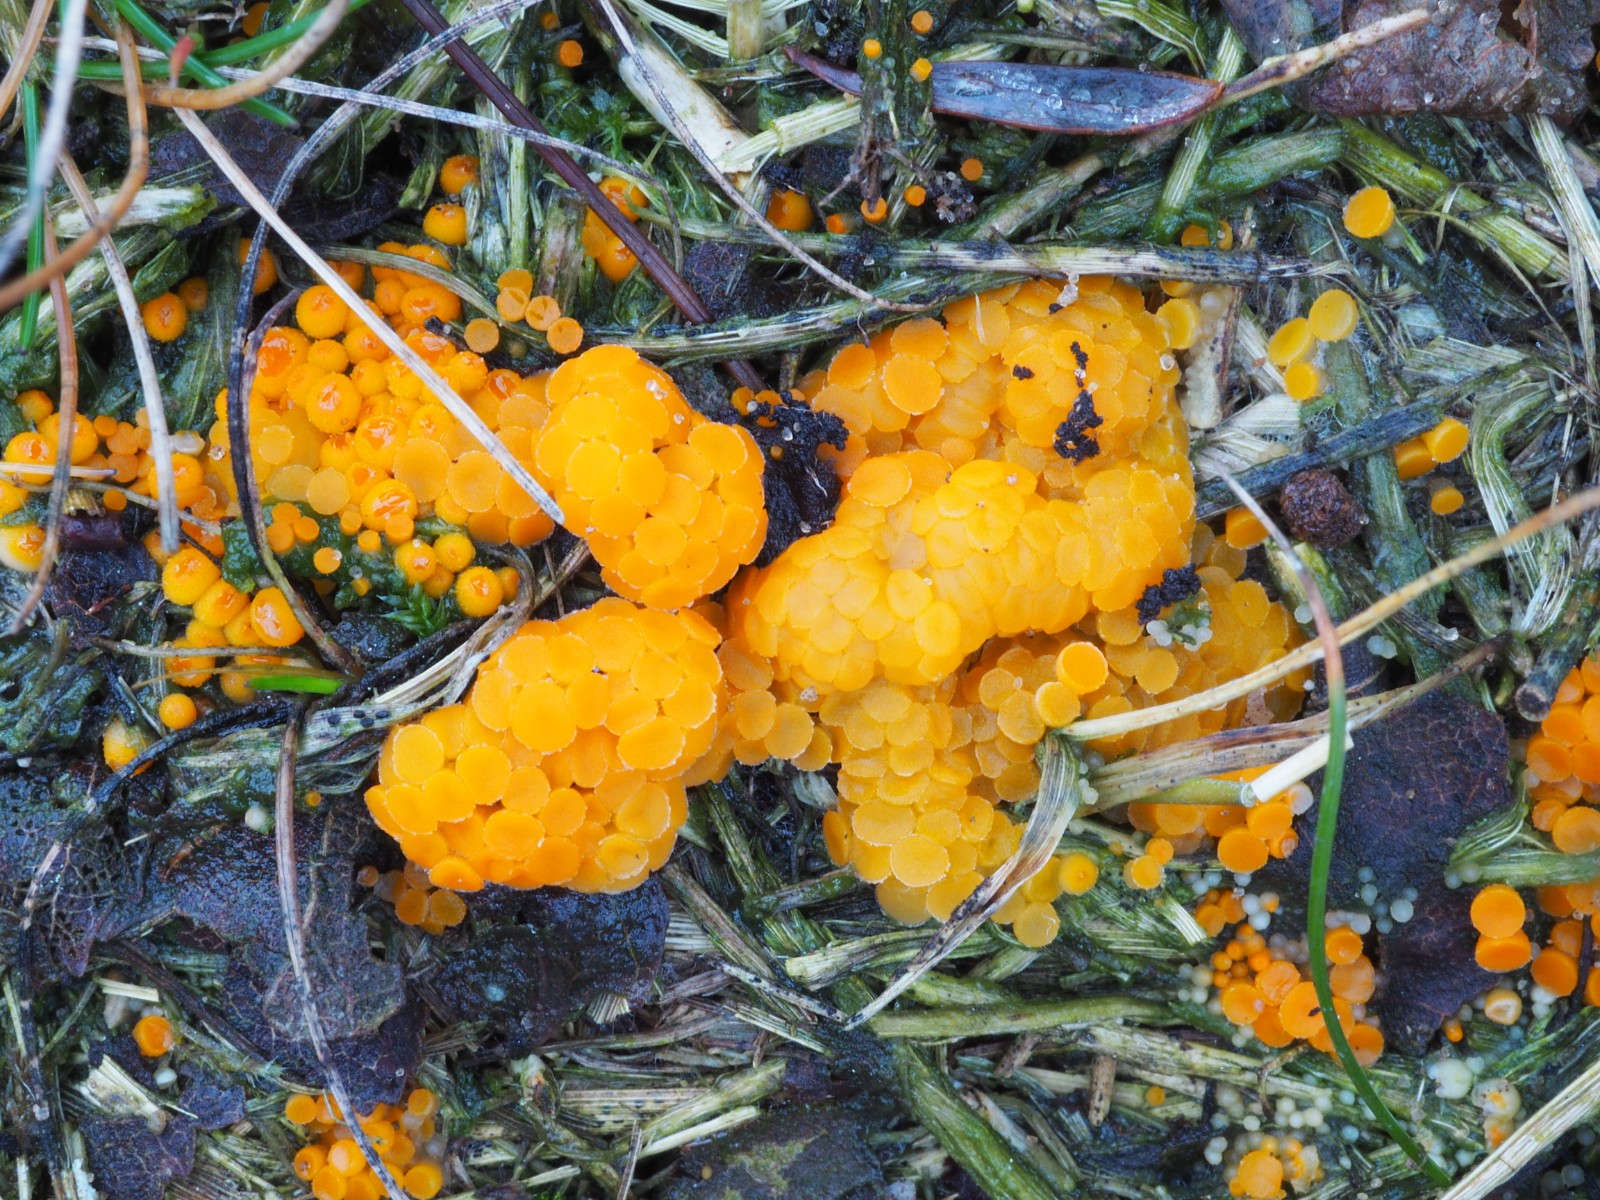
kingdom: Fungi
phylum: Ascomycota
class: Pezizomycetes
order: Pezizales
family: Pyronemataceae
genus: Byssonectria
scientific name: Byssonectria terrestris
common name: hjortebæger
